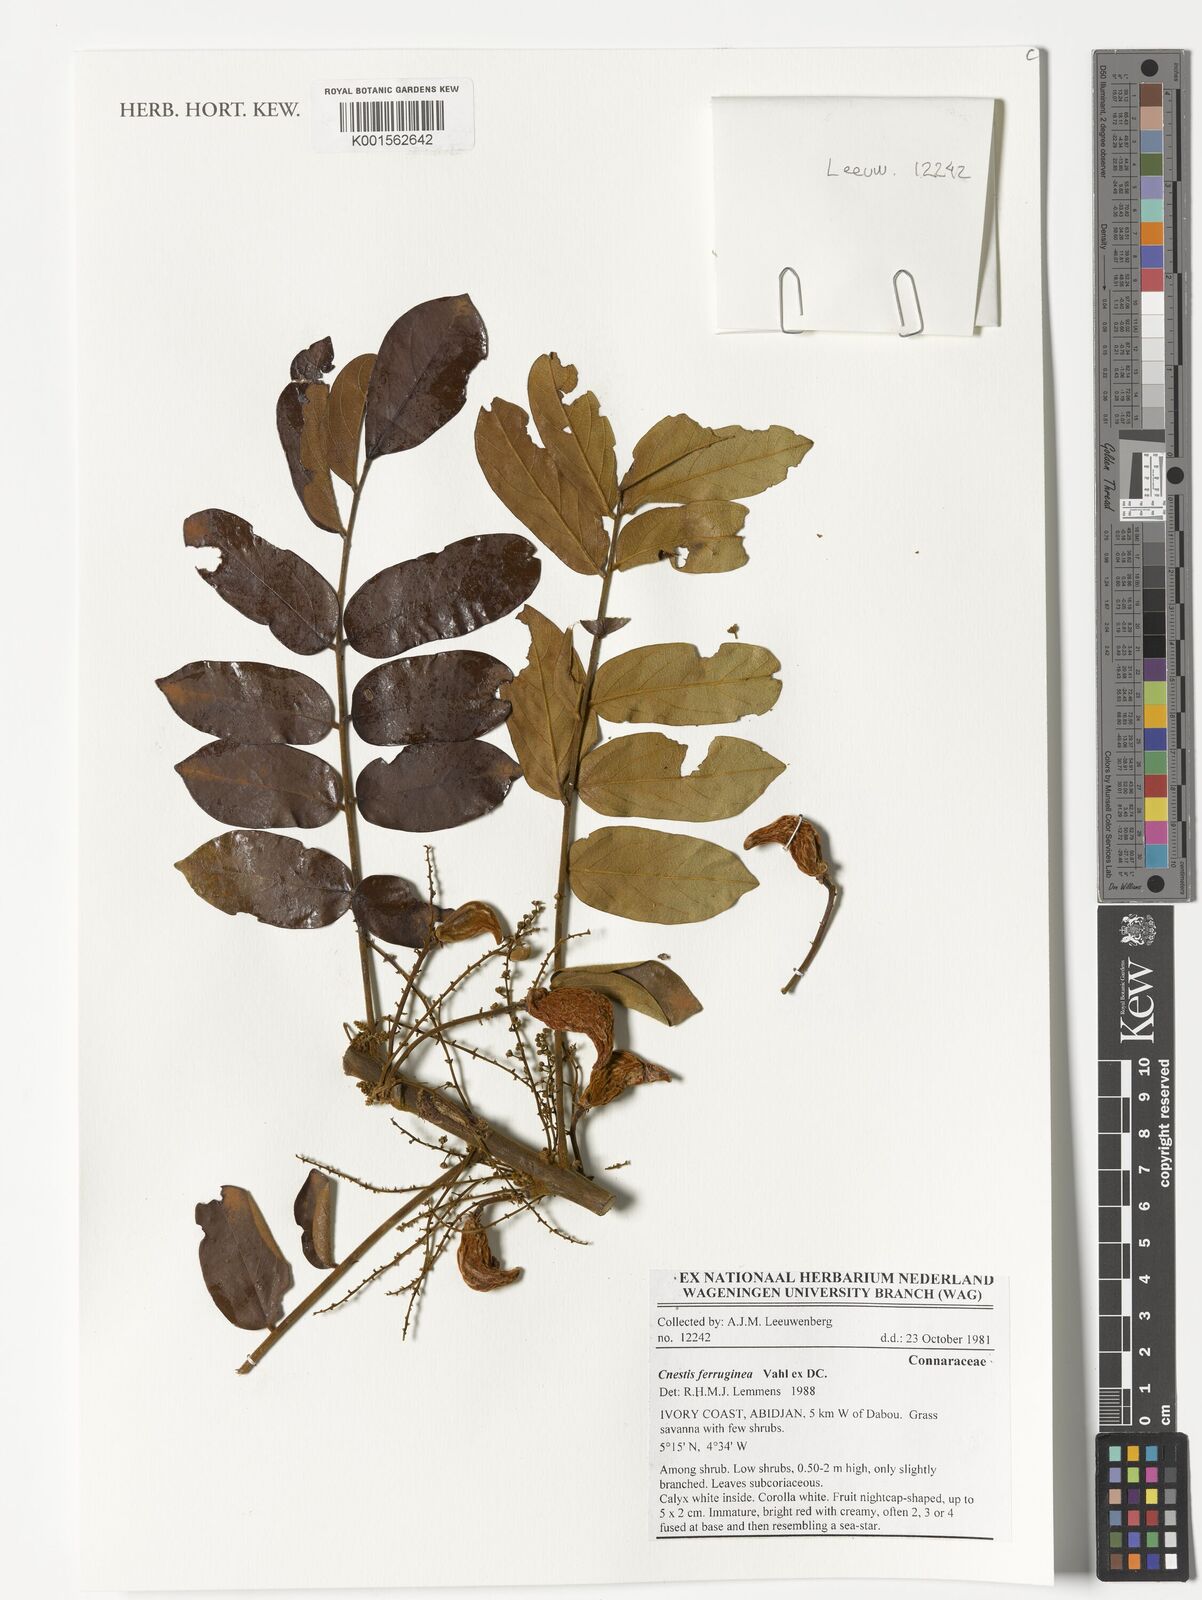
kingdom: Plantae
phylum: Tracheophyta
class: Magnoliopsida
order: Oxalidales
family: Connaraceae
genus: Cnestis
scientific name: Cnestis ferruginea
